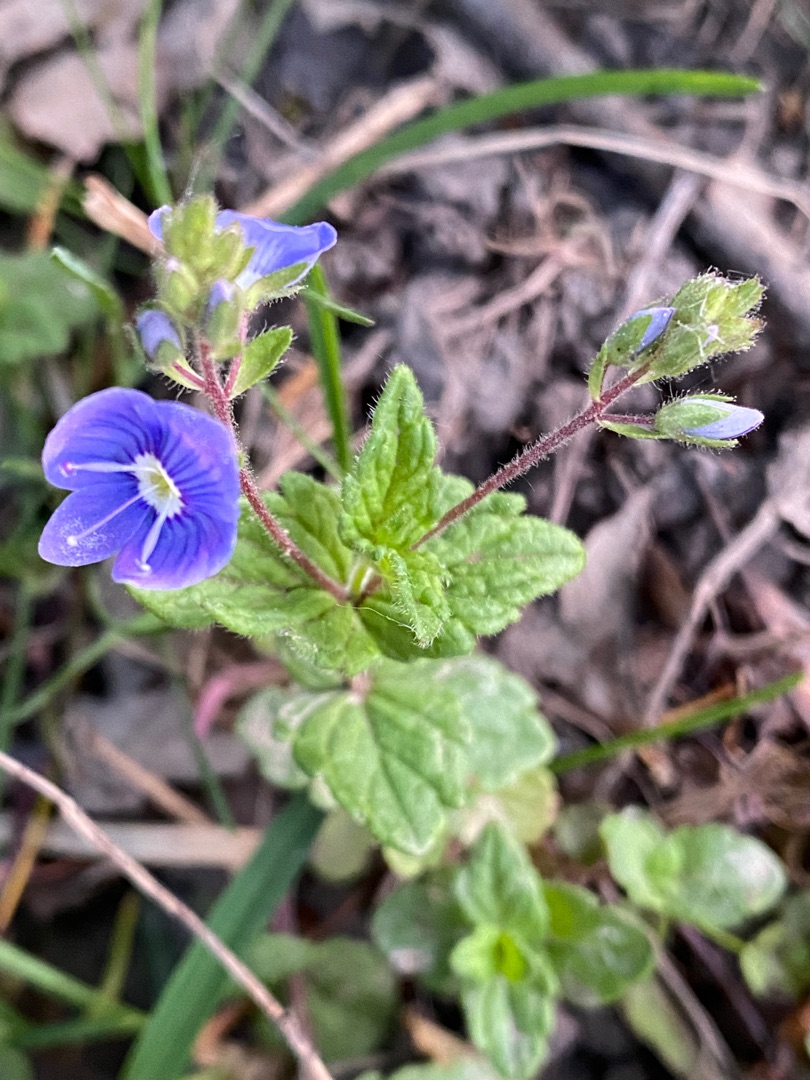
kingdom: Plantae
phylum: Tracheophyta
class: Magnoliopsida
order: Lamiales
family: Plantaginaceae
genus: Veronica
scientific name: Veronica chamaedrys
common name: Tveskægget ærenpris
